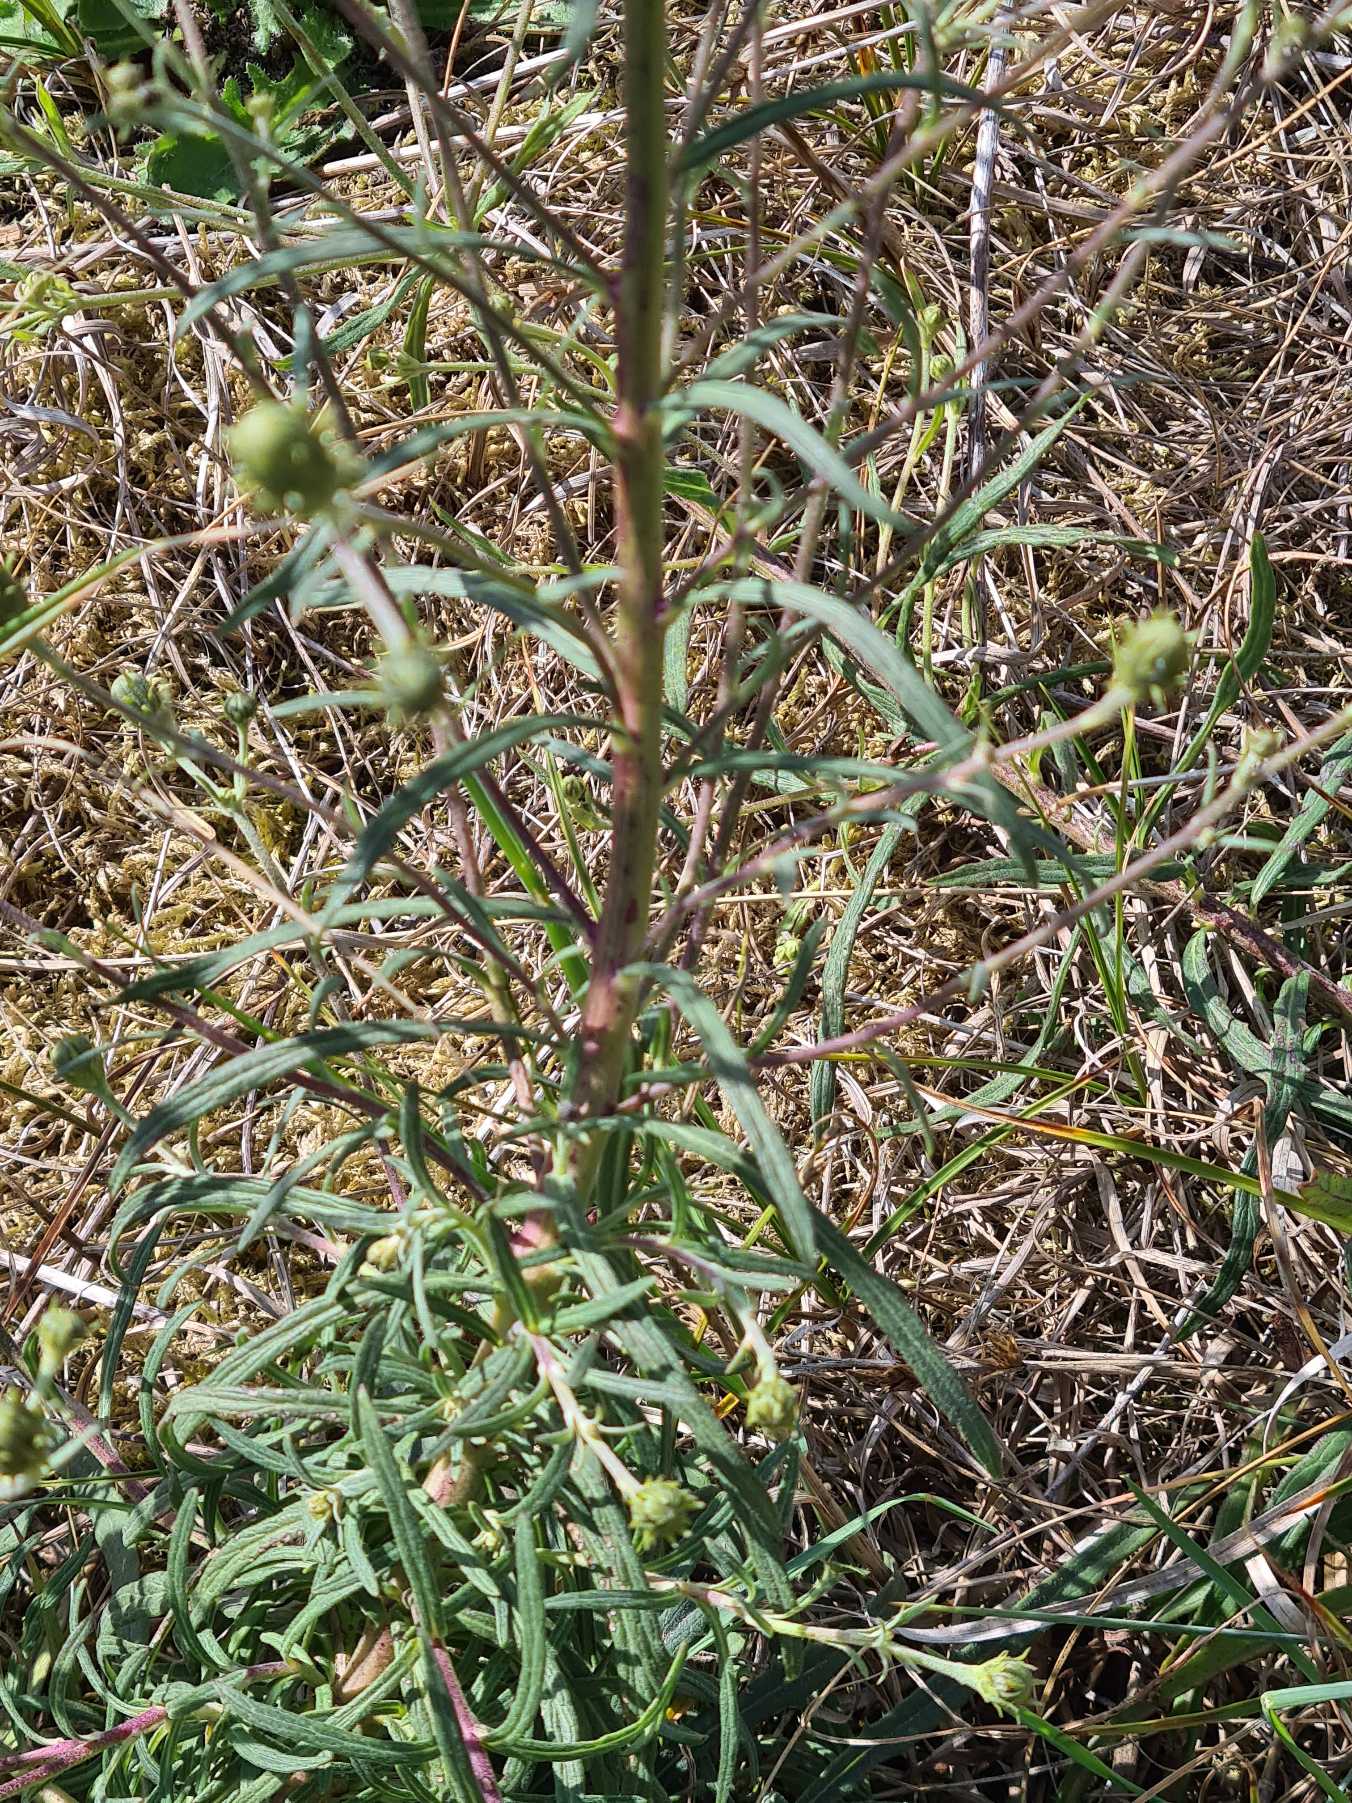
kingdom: Plantae
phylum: Tracheophyta
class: Magnoliopsida
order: Asterales
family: Asteraceae
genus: Hieracium
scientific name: Hieracium umbellatum
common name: Smalbladet høgeurt
